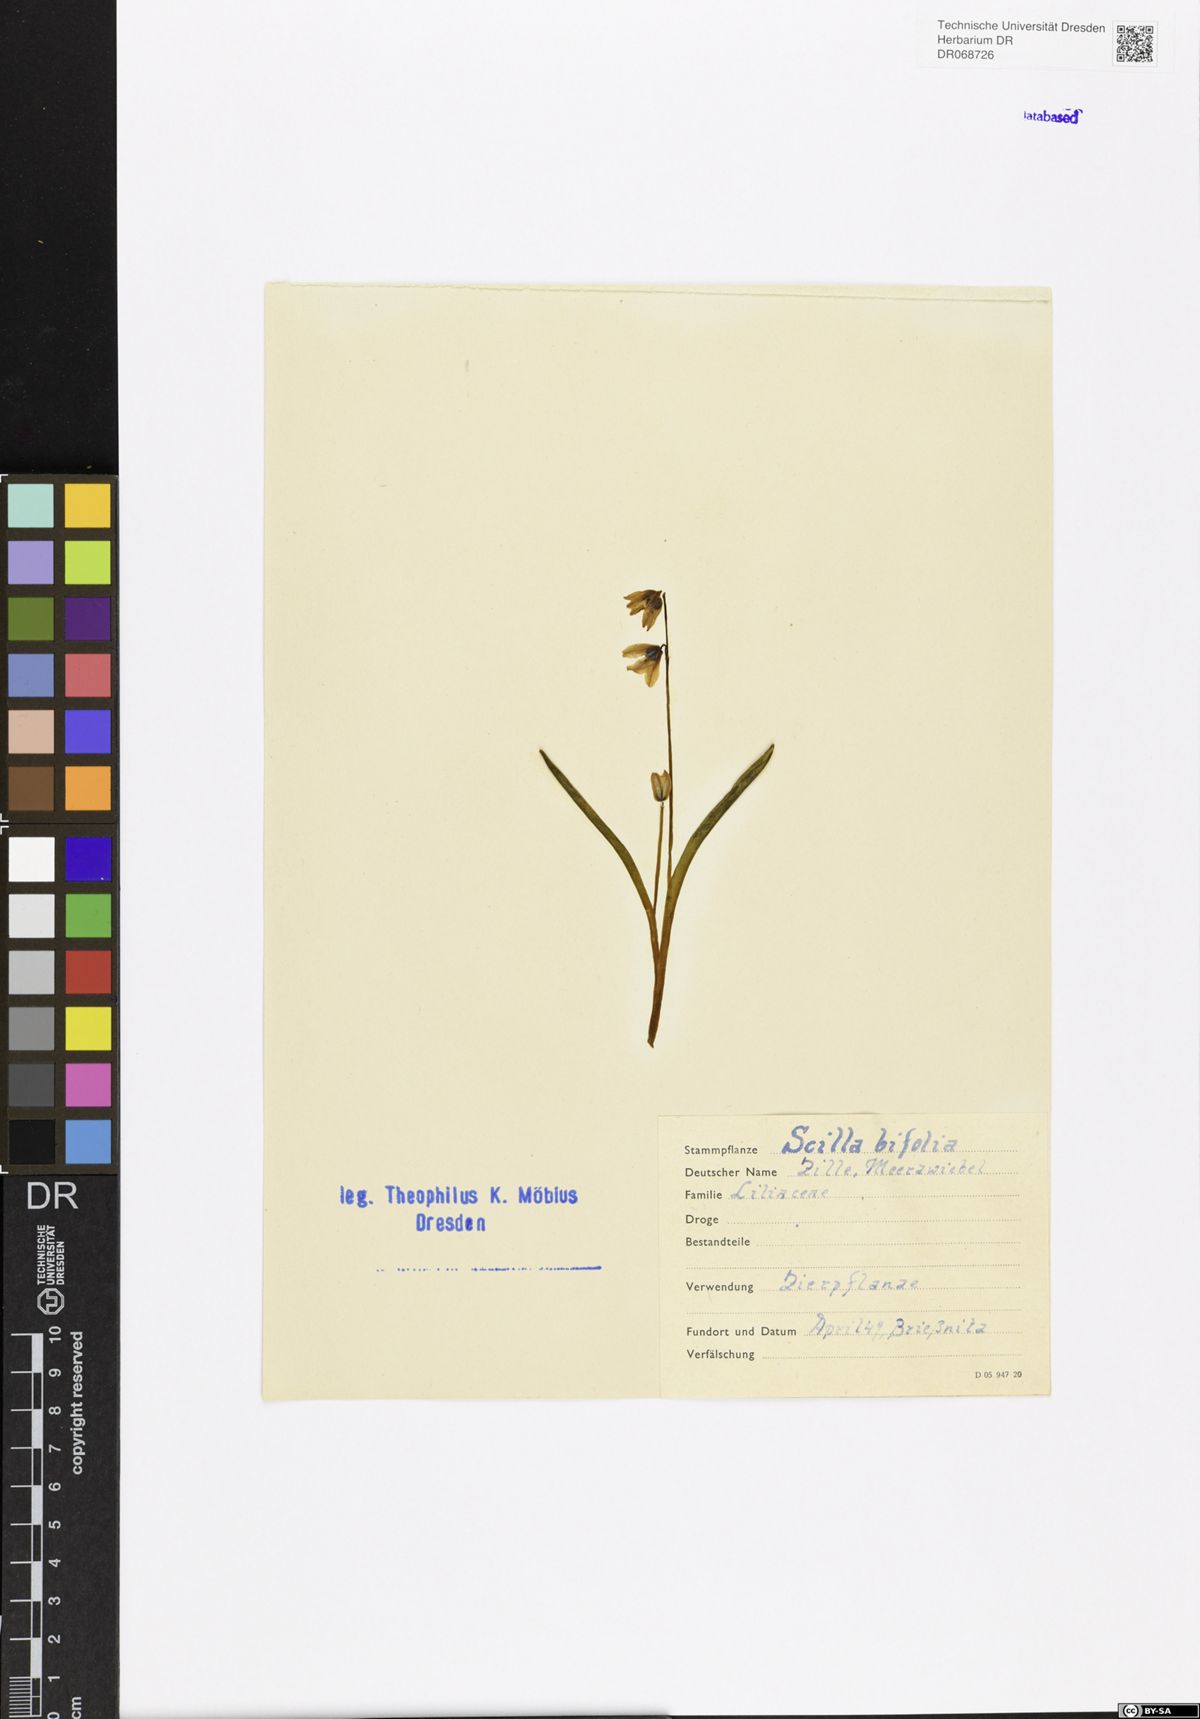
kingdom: Plantae
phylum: Tracheophyta
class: Liliopsida
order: Asparagales
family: Asparagaceae
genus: Scilla
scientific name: Scilla bifolia
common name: Alpine squill
